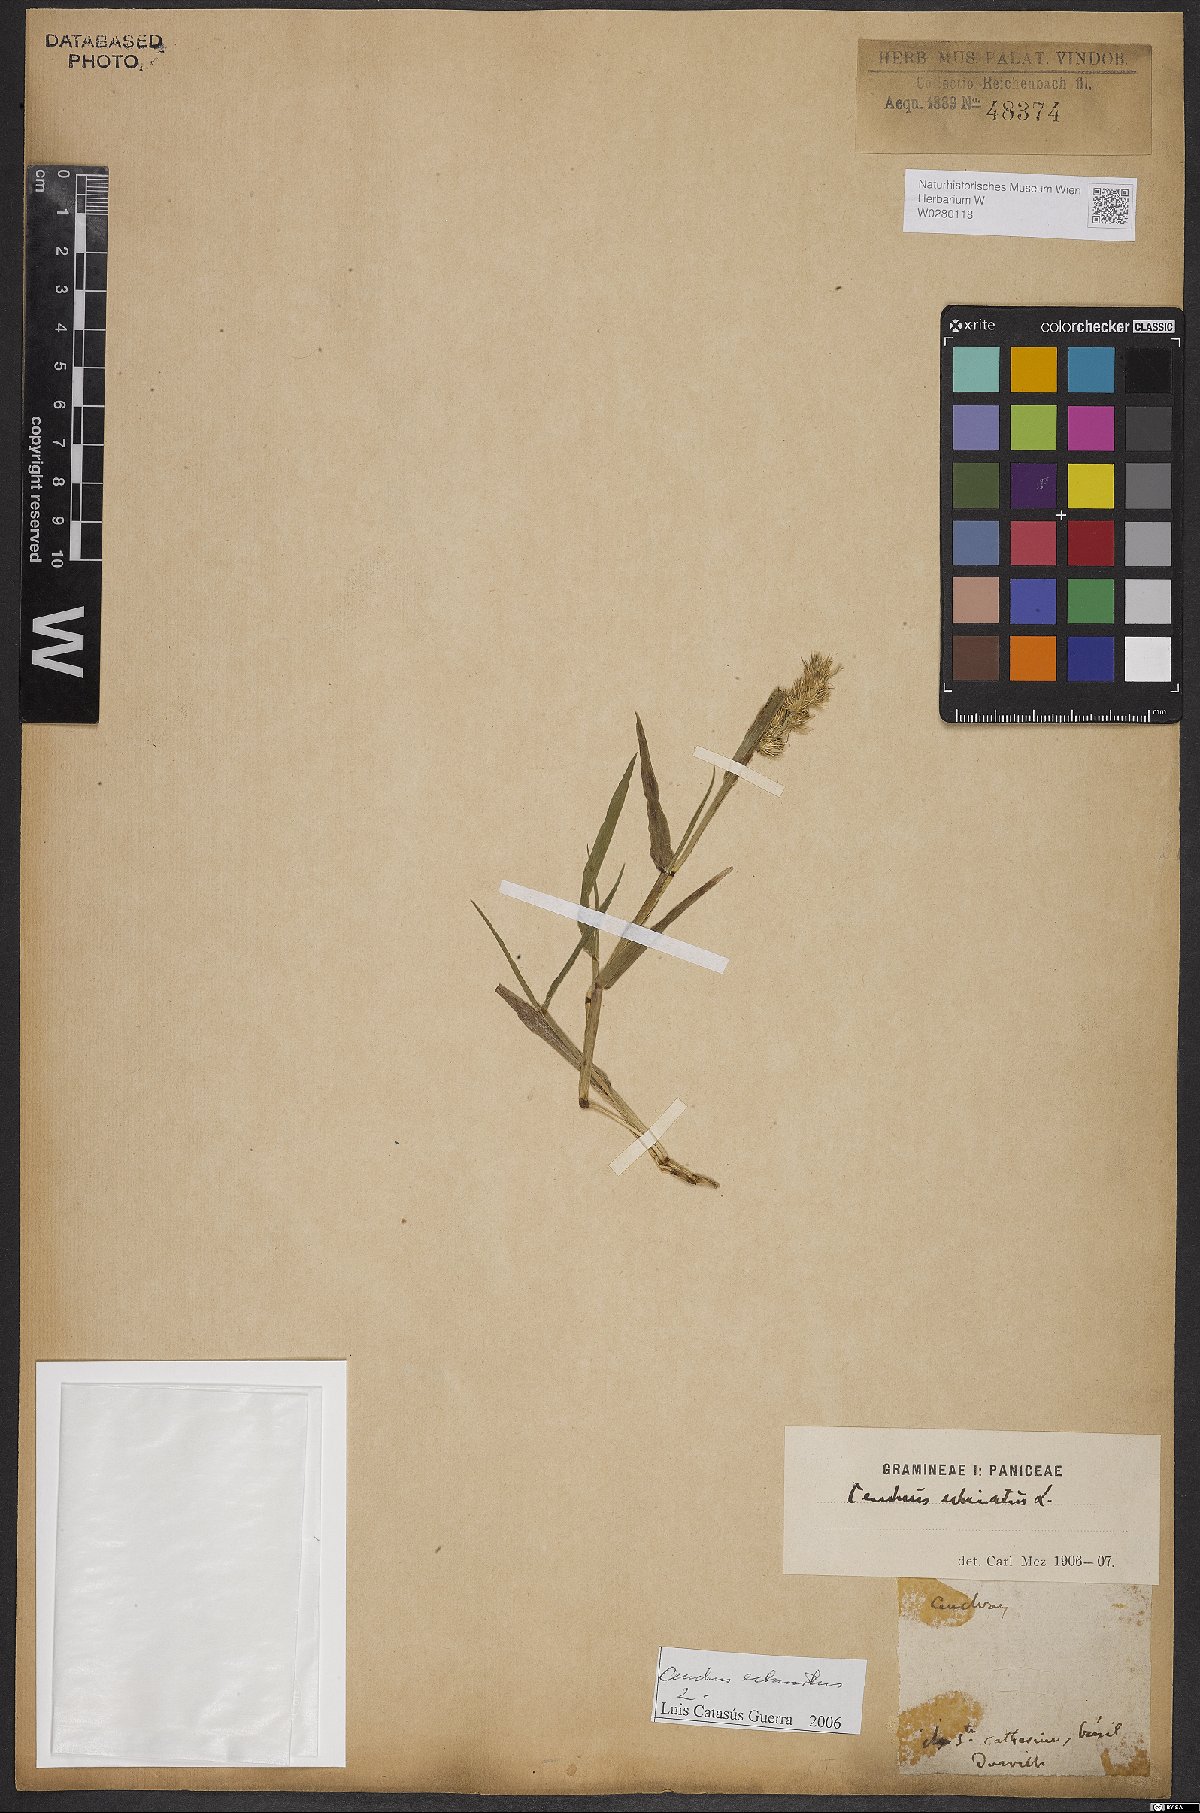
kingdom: Plantae
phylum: Tracheophyta
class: Liliopsida
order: Poales
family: Poaceae
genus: Cenchrus
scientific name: Cenchrus echinatus
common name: Southern sandbur
